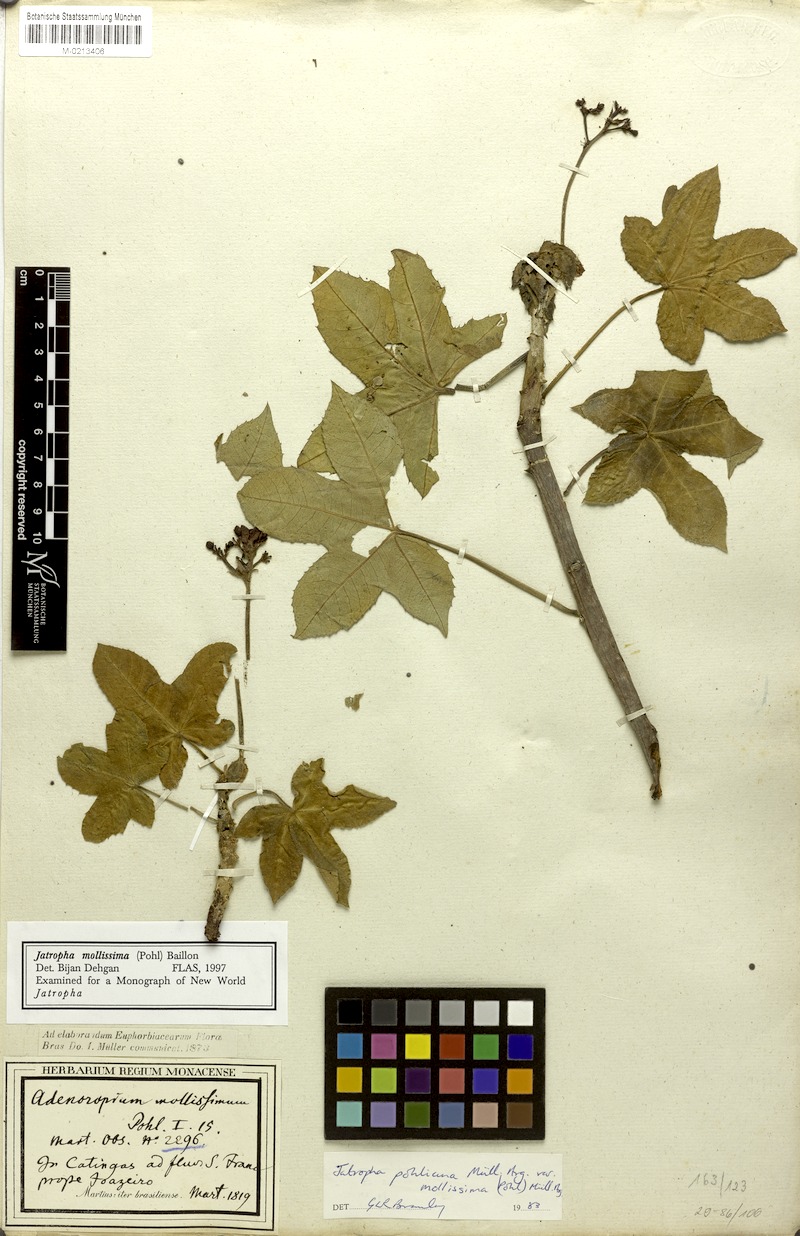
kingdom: Plantae
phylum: Tracheophyta
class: Magnoliopsida
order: Malpighiales
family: Euphorbiaceae
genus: Jatropha
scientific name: Jatropha mollissima
